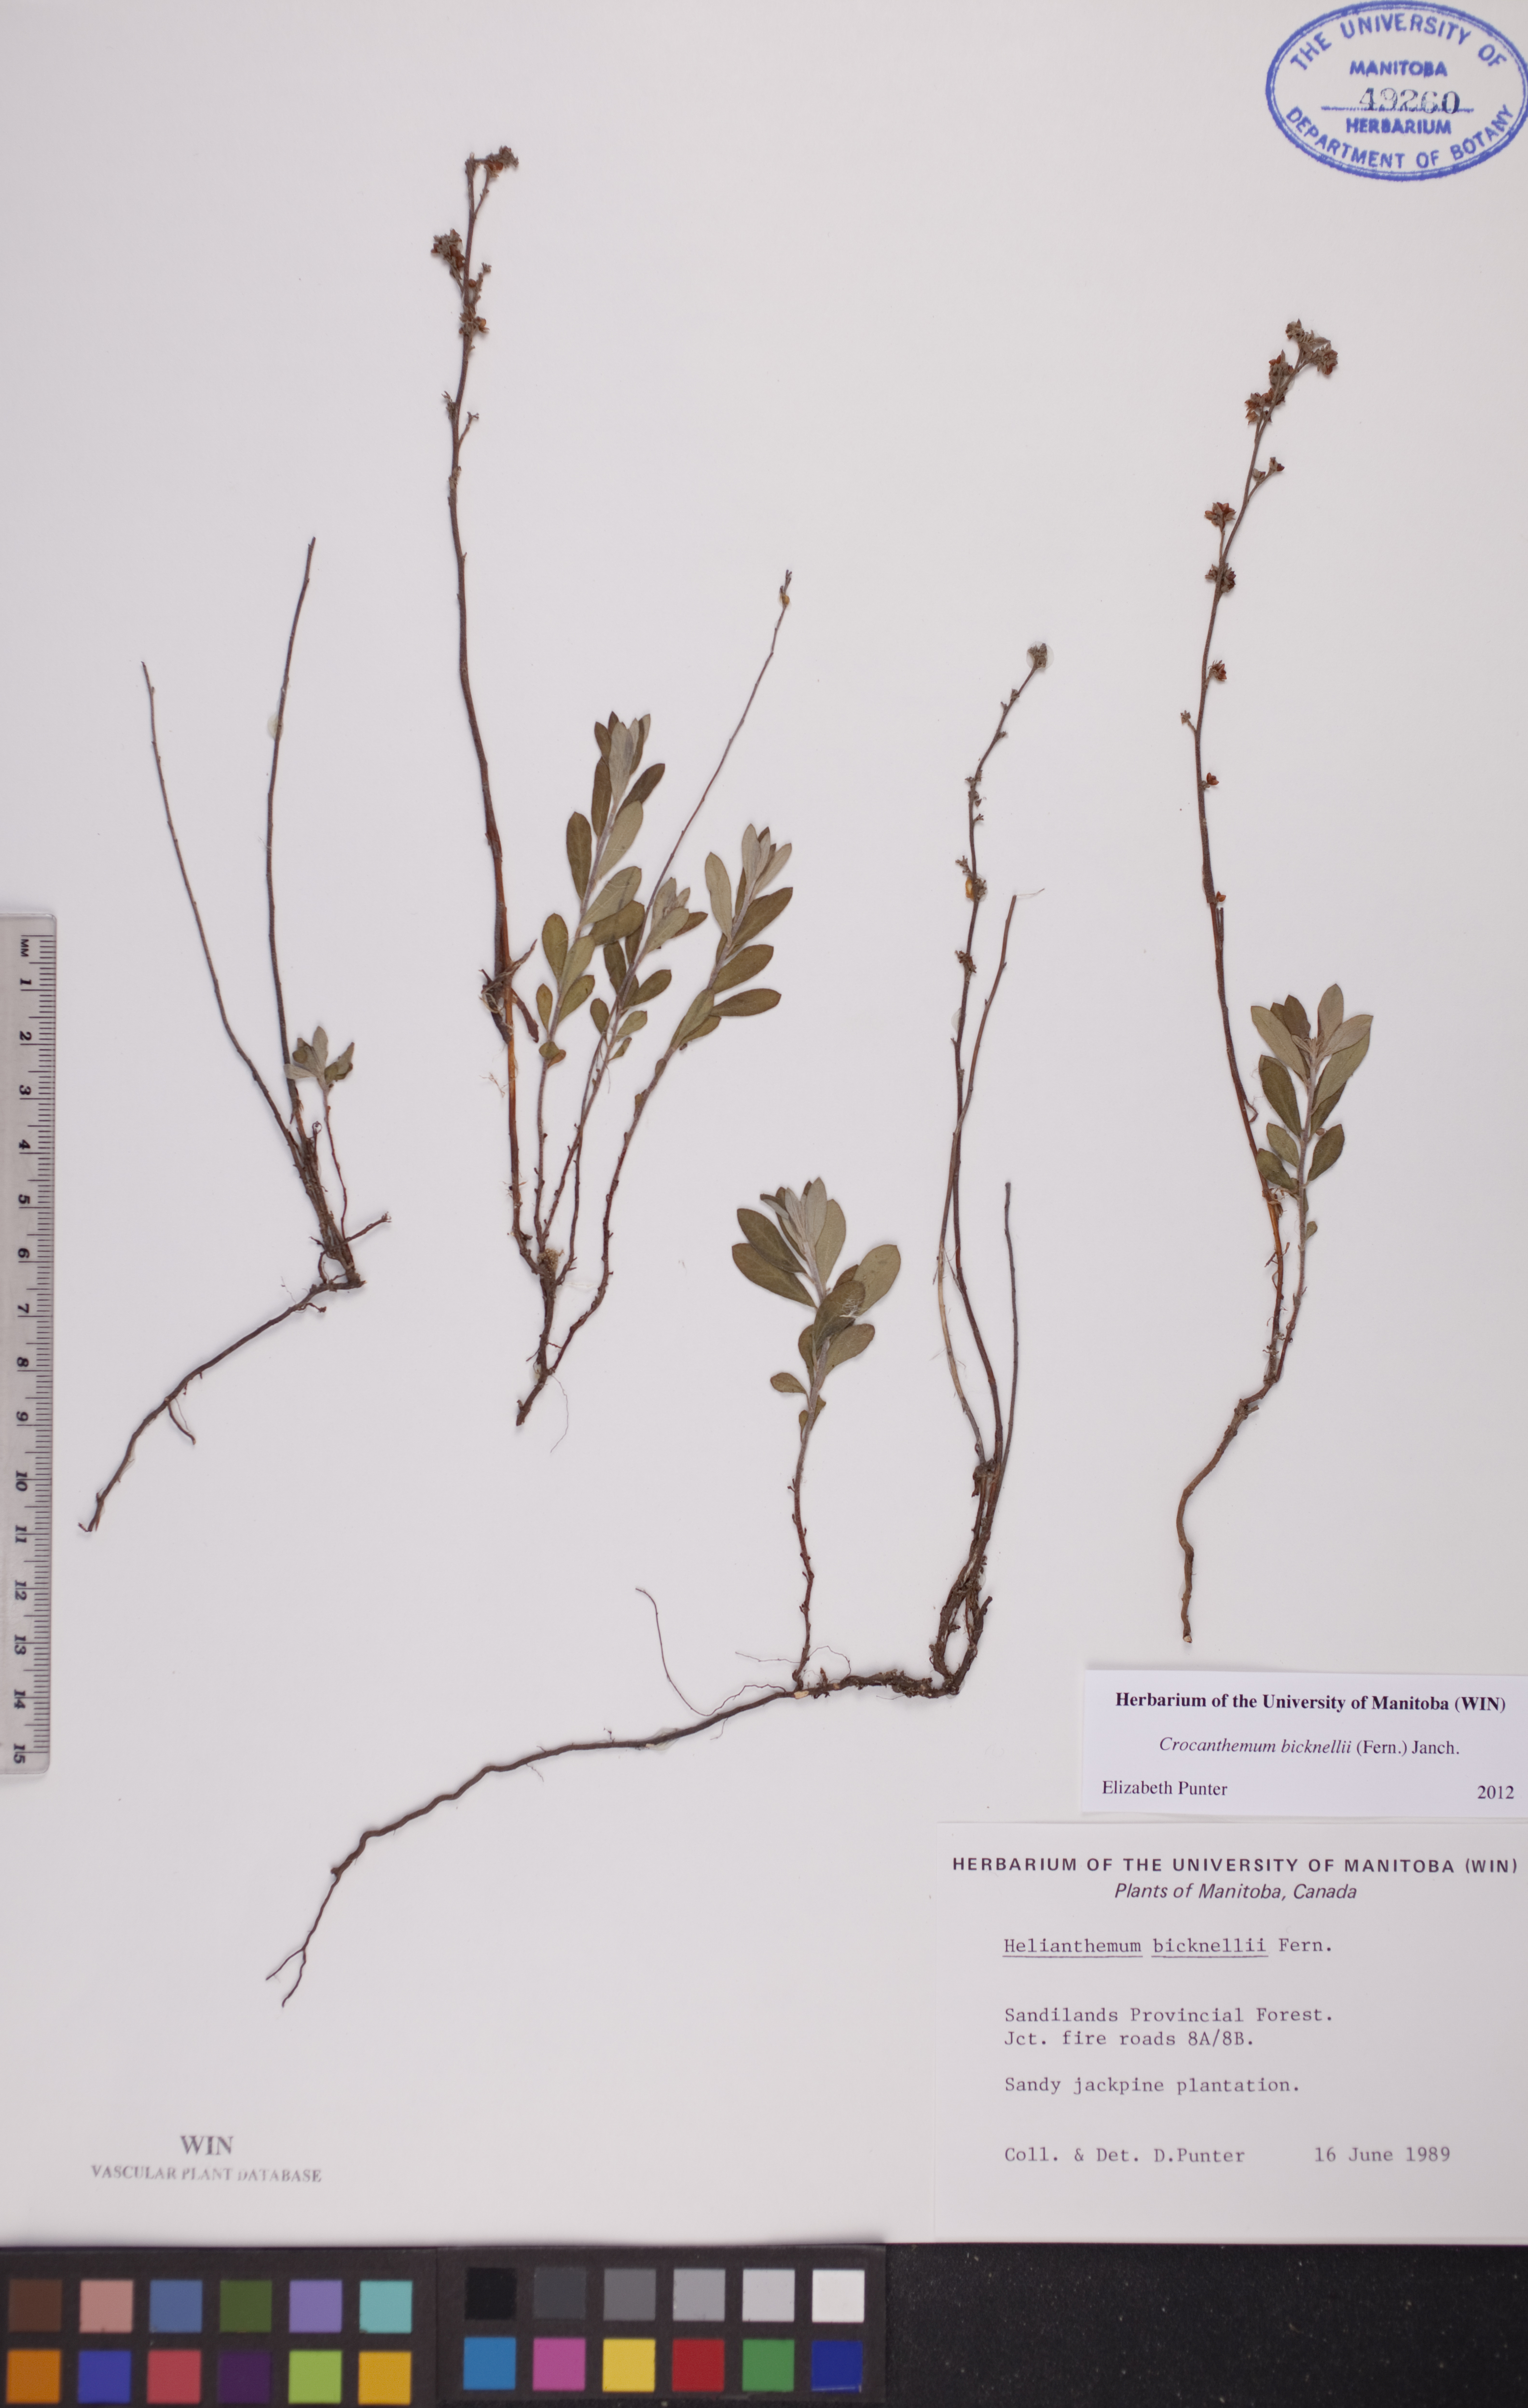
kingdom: Plantae
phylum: Tracheophyta
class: Magnoliopsida
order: Malvales
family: Cistaceae
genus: Crocanthemum
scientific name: Crocanthemum bicknellii
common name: Hoary frostweed
